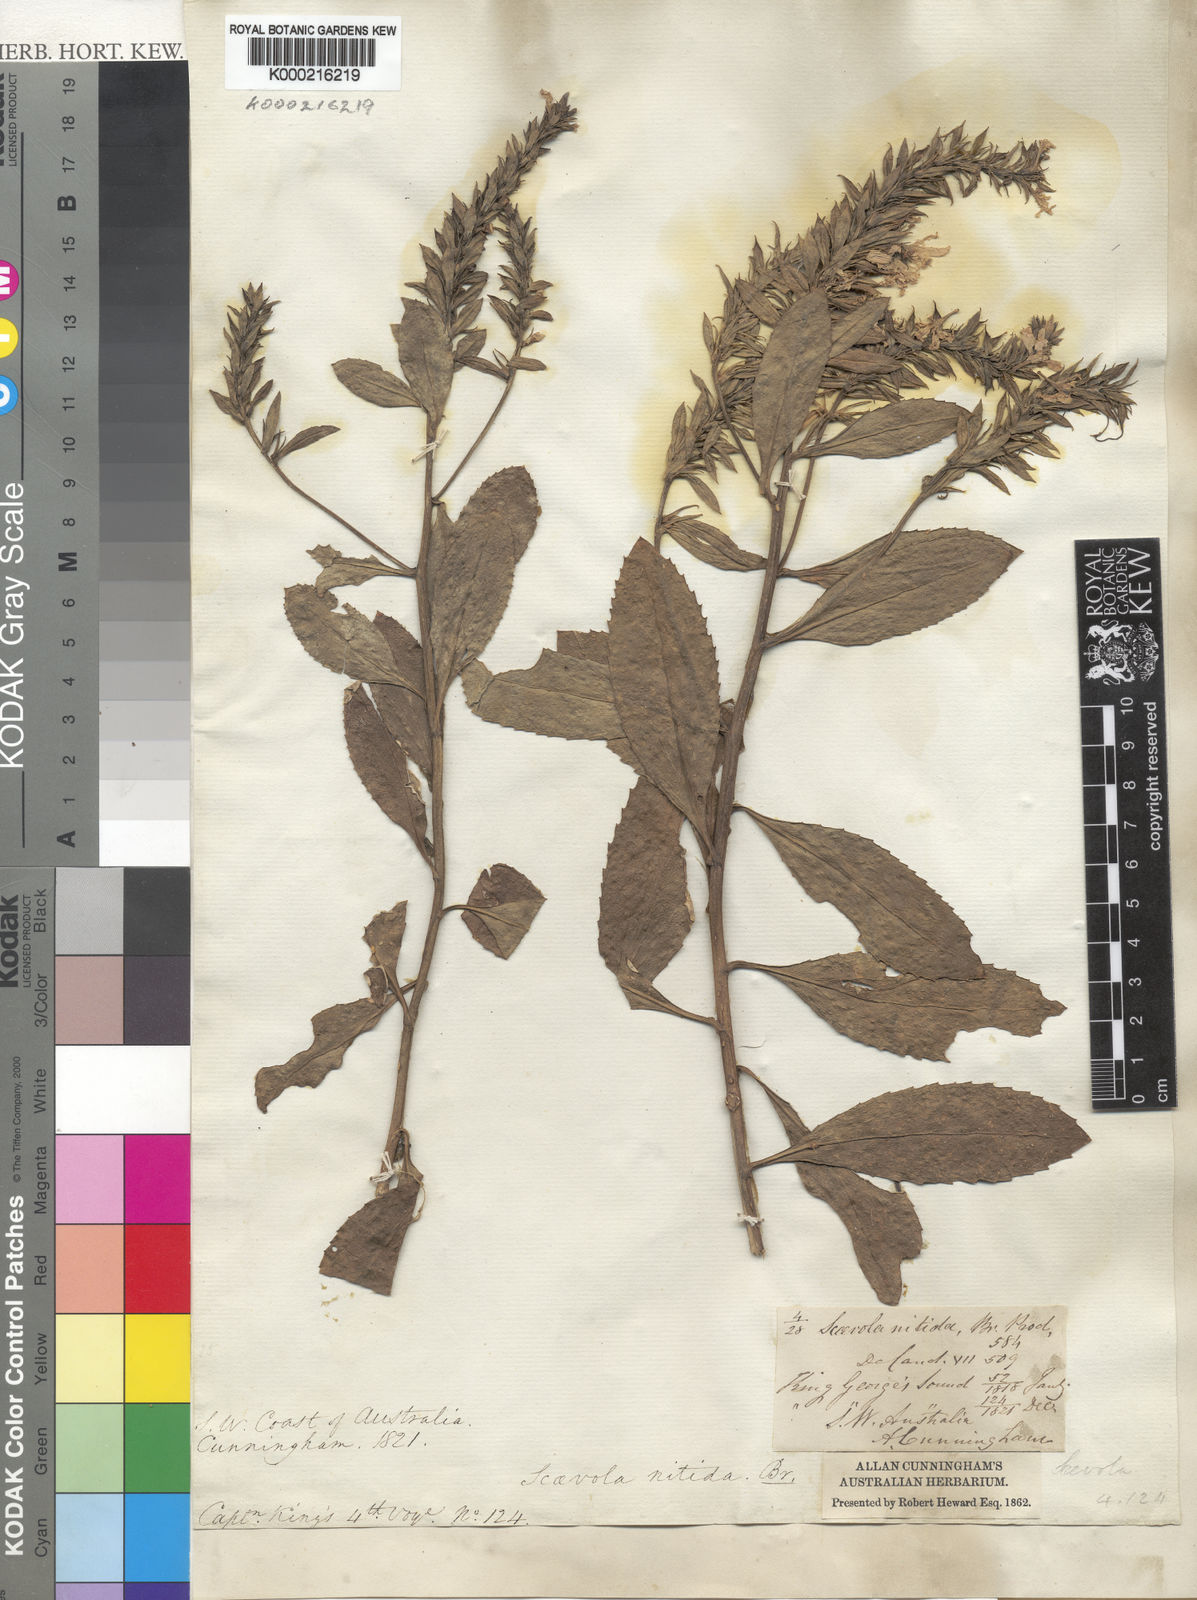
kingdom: Plantae
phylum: Tracheophyta
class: Magnoliopsida
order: Asterales
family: Goodeniaceae
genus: Scaevola
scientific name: Scaevola nitida
